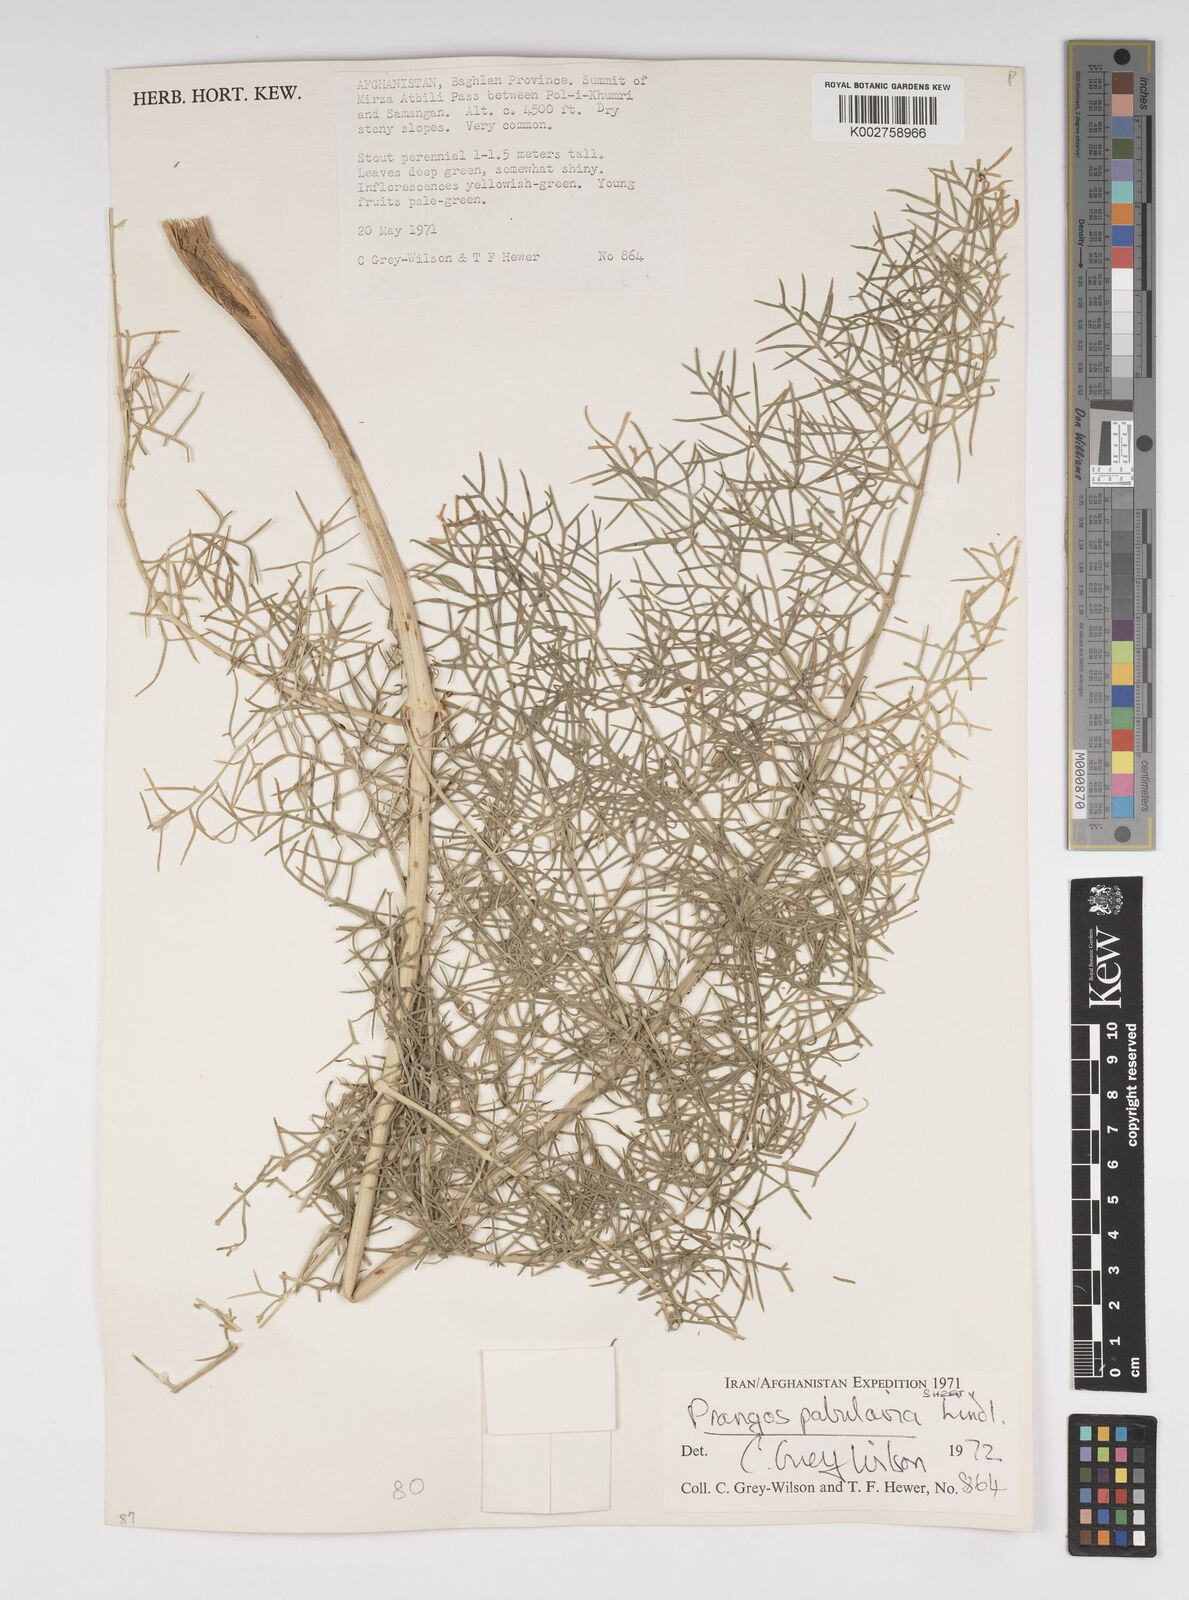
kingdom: Plantae
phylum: Tracheophyta
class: Magnoliopsida
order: Apiales
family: Apiaceae
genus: Prangos
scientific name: Prangos pabularia
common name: Yugan
